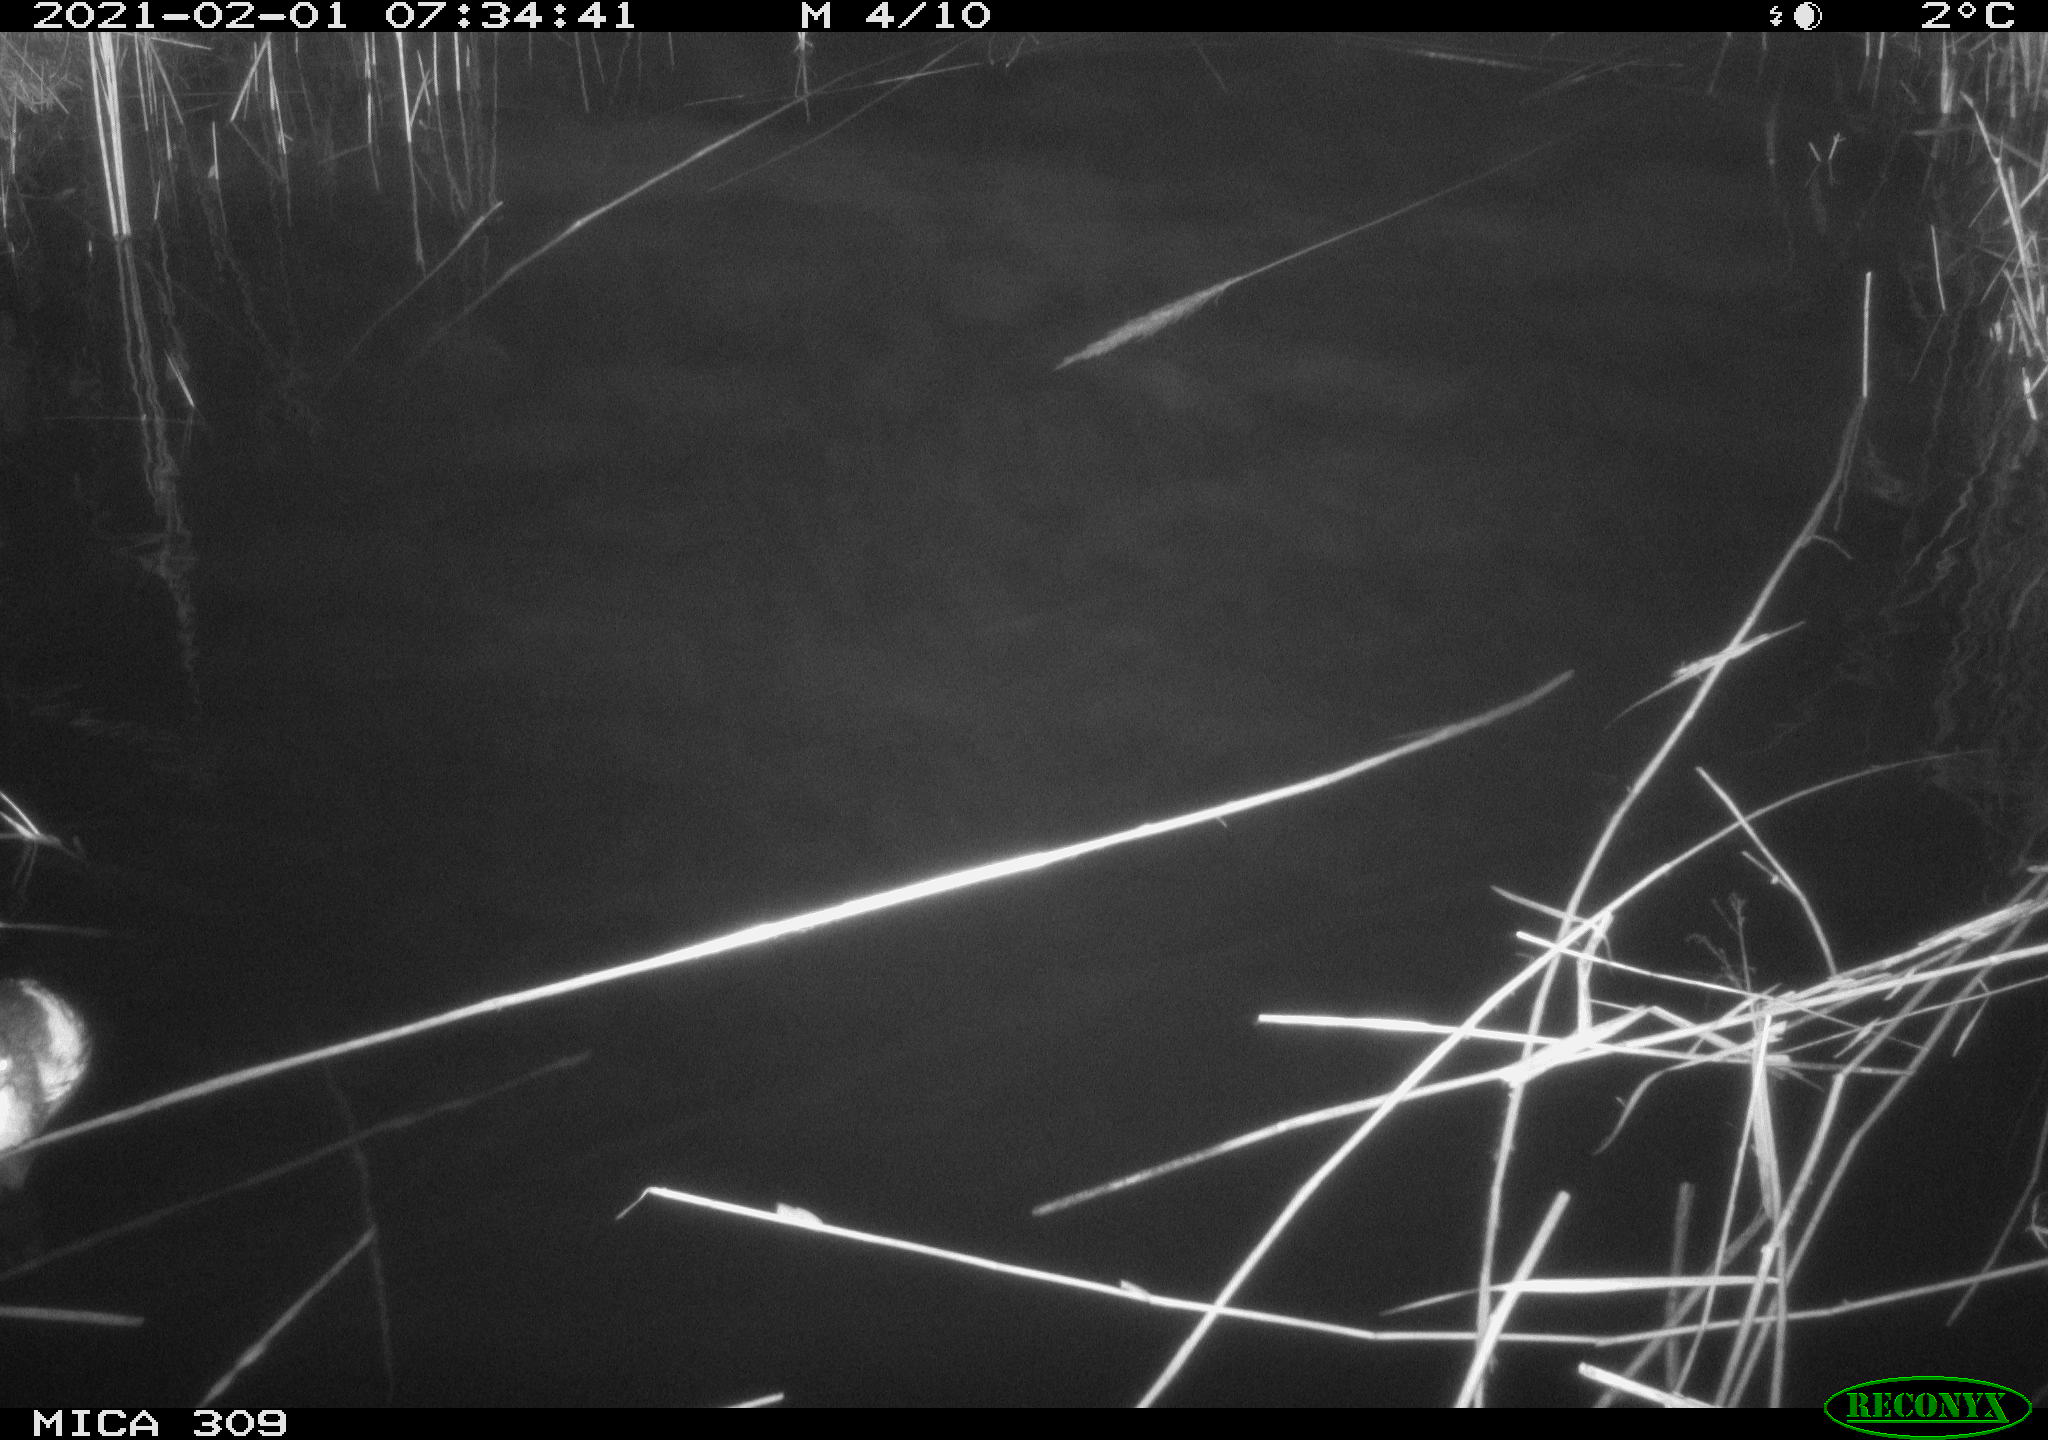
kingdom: Animalia
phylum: Chordata
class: Aves
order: Podicipediformes
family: Podicipedidae
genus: Tachybaptus
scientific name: Tachybaptus ruficollis
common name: Little grebe
